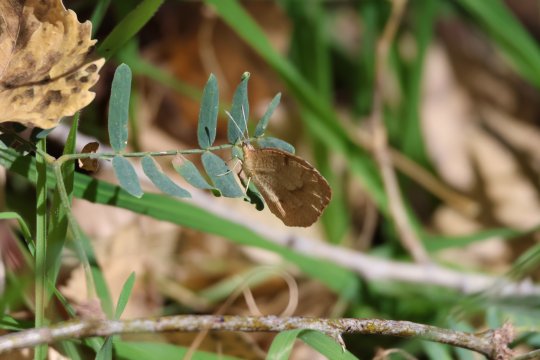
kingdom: Animalia
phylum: Arthropoda
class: Insecta
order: Lepidoptera
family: Pieridae
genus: Abaeis
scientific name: Abaeis nicippe
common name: Sleepy Orange
